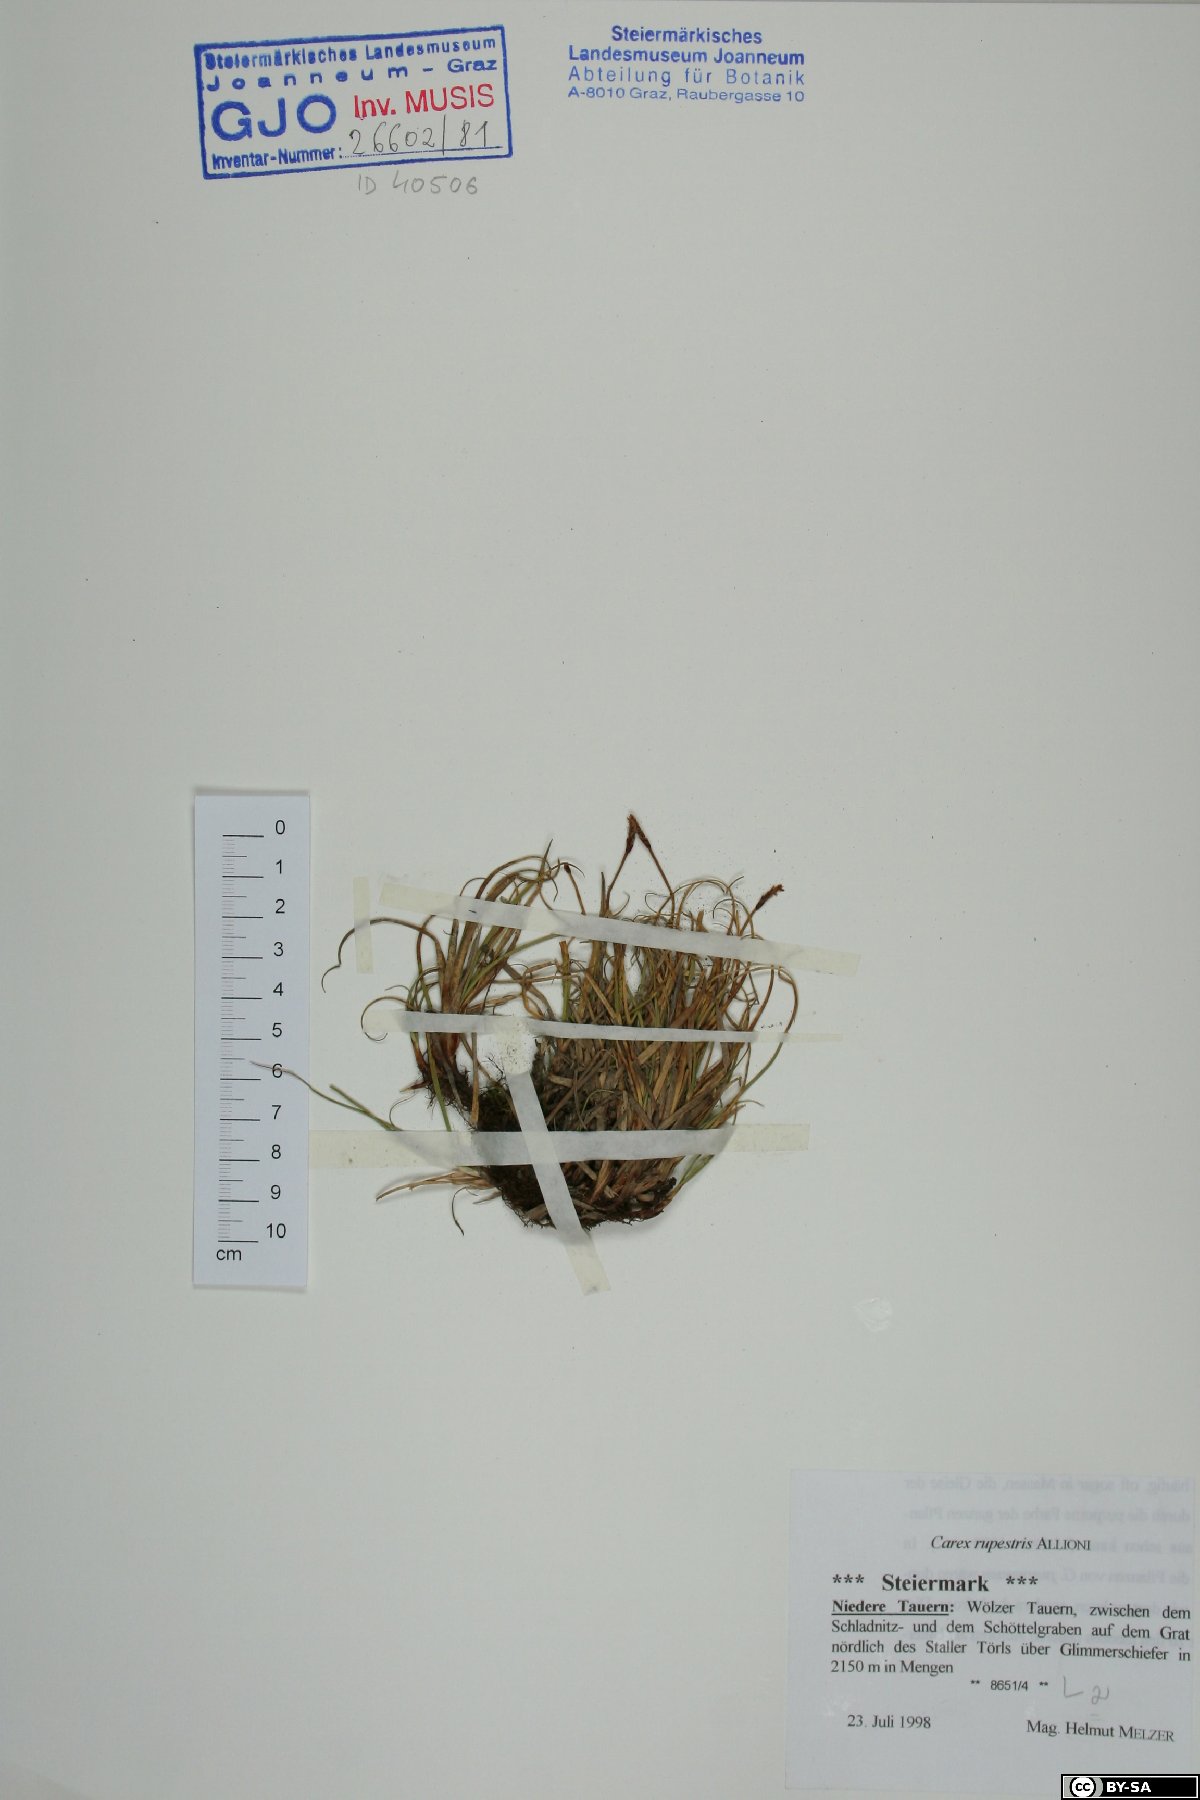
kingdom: Plantae
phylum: Tracheophyta
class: Liliopsida
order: Poales
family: Cyperaceae
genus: Carex
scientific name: Carex rupestris
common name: Rock sedge
